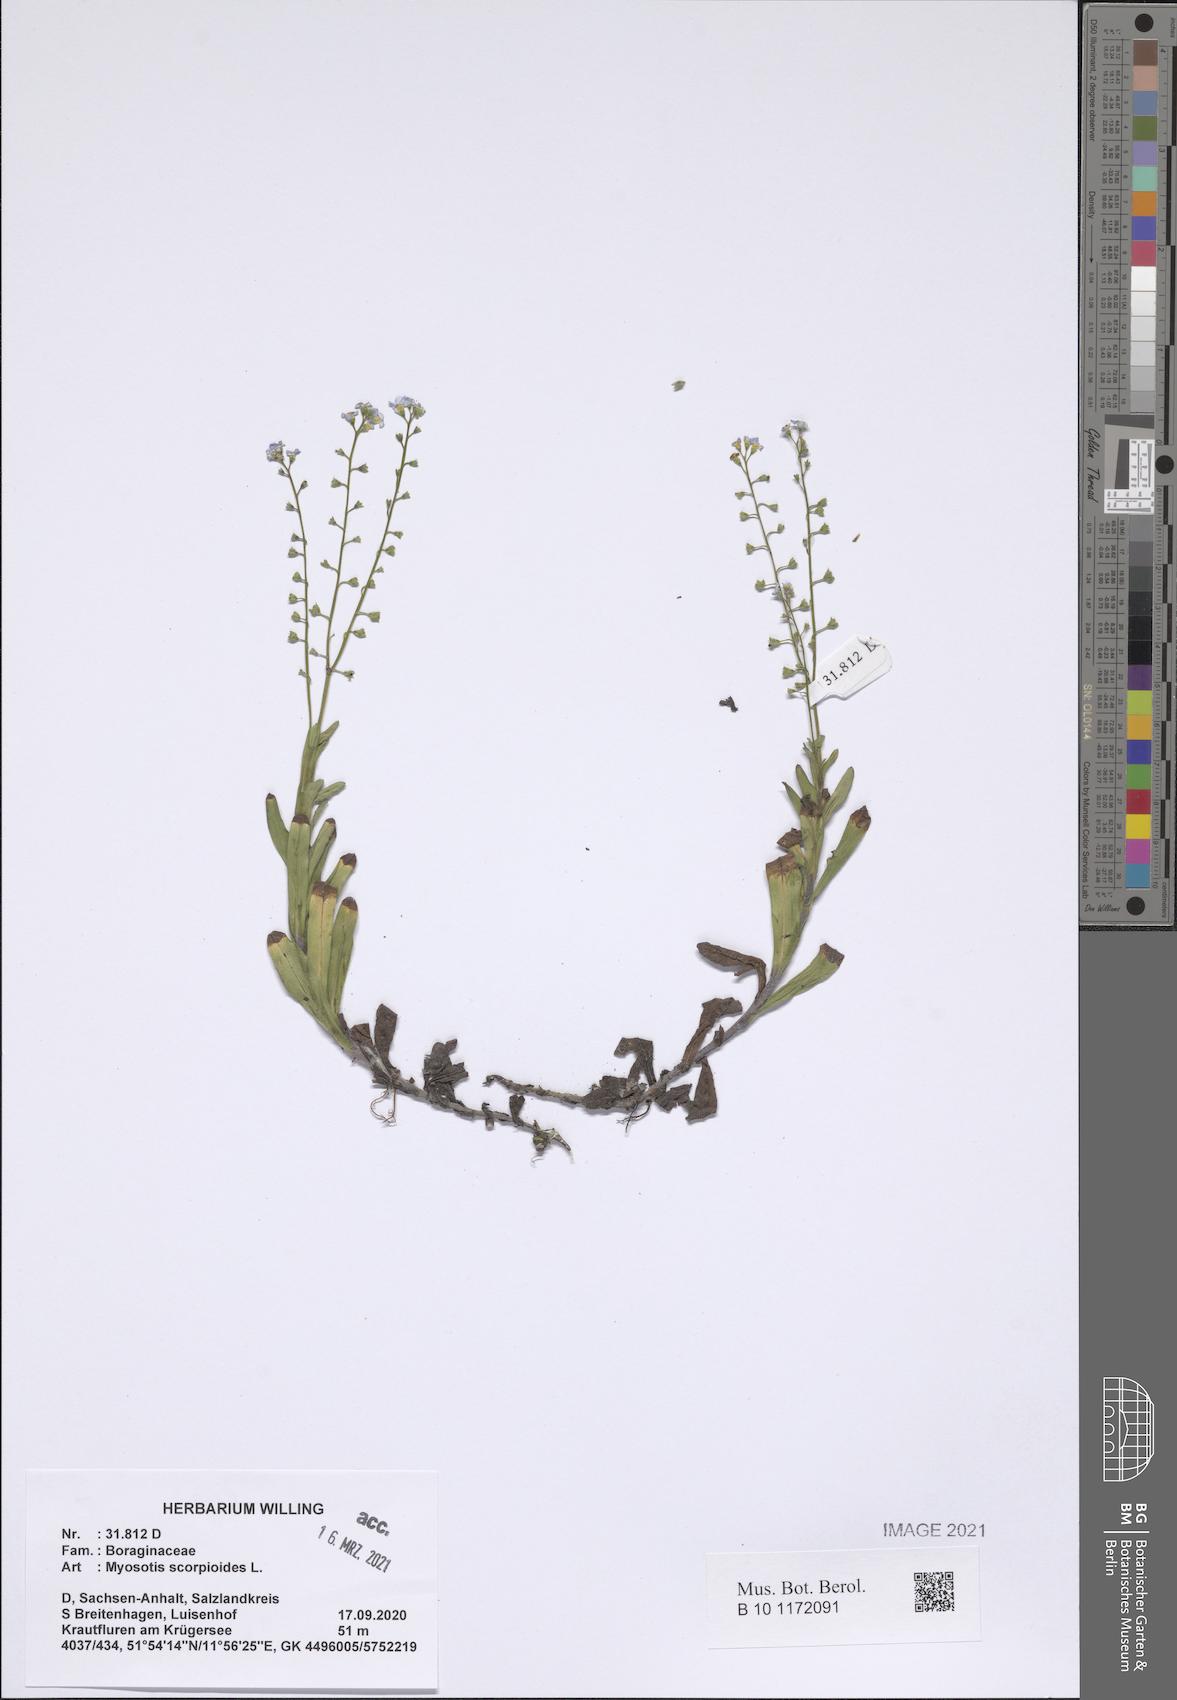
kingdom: Plantae
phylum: Tracheophyta
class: Magnoliopsida
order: Boraginales
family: Boraginaceae
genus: Myosotis
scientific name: Myosotis scorpioides
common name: Water forget-me-not
